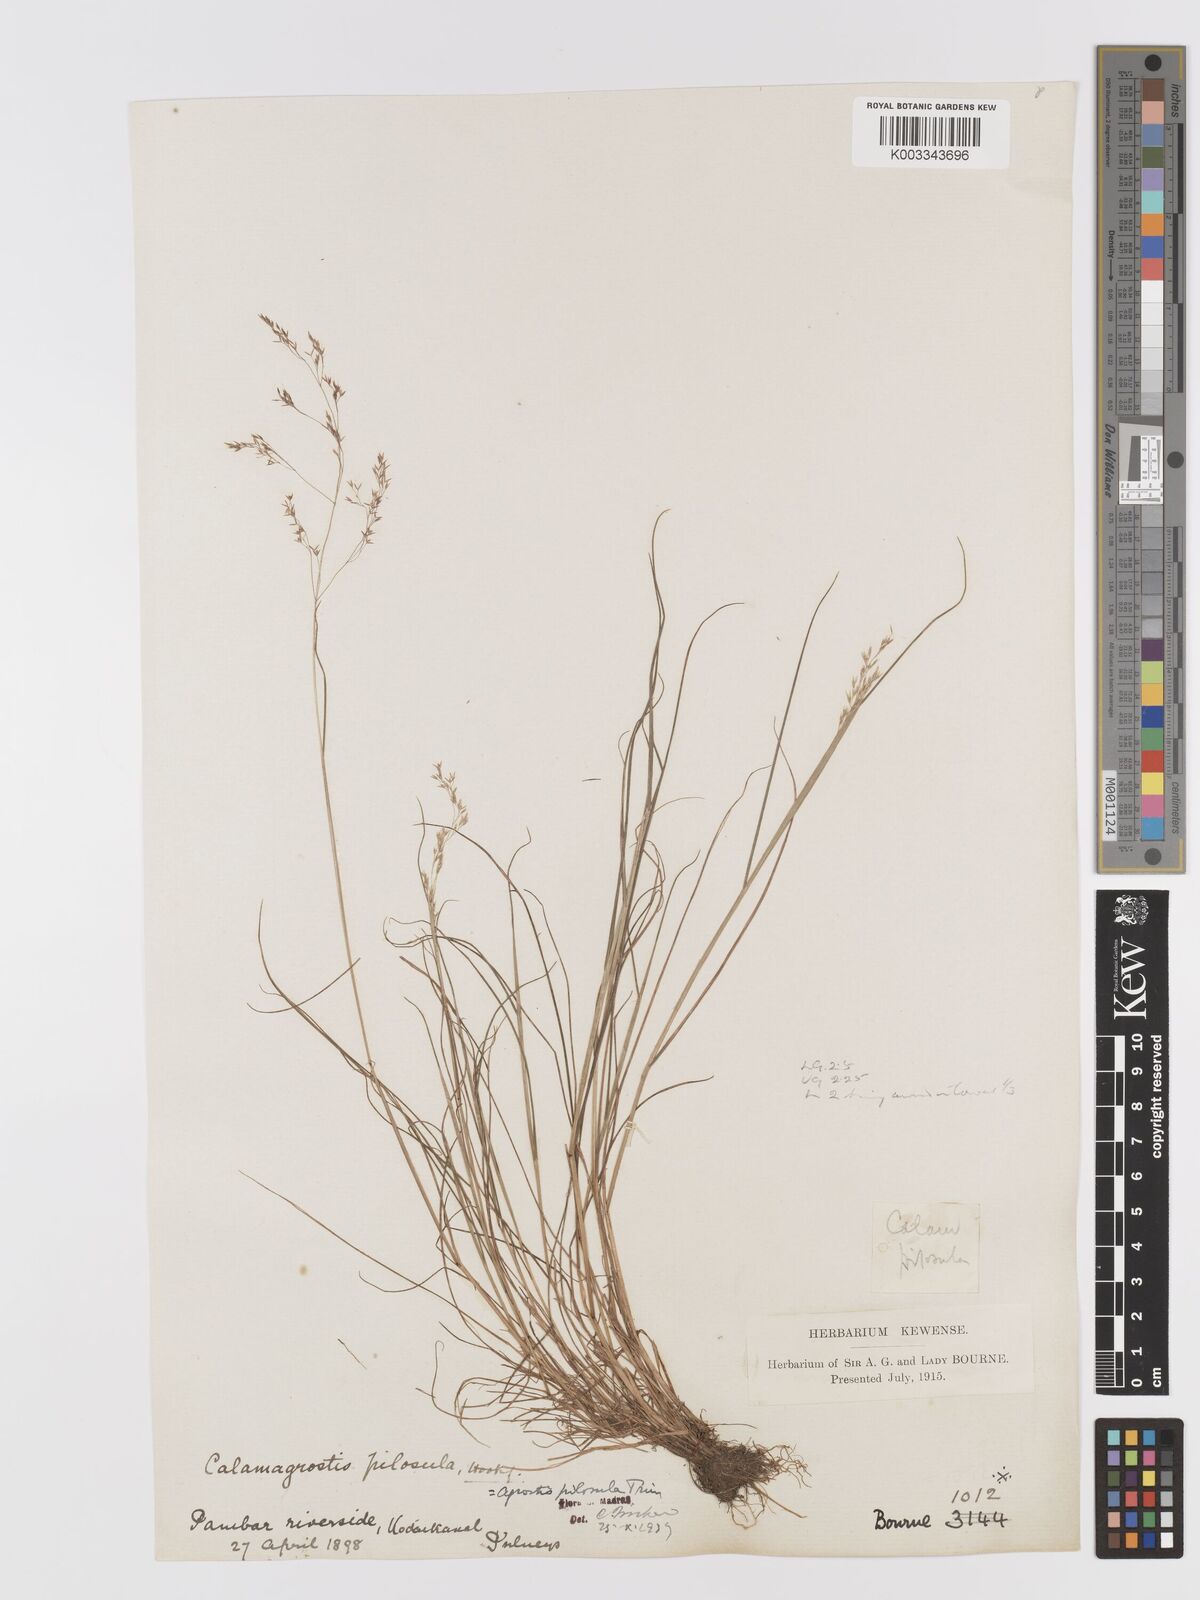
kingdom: Plantae
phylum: Tracheophyta
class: Liliopsida
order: Poales
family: Poaceae
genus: Agrostis
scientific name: Agrostis pilosula
